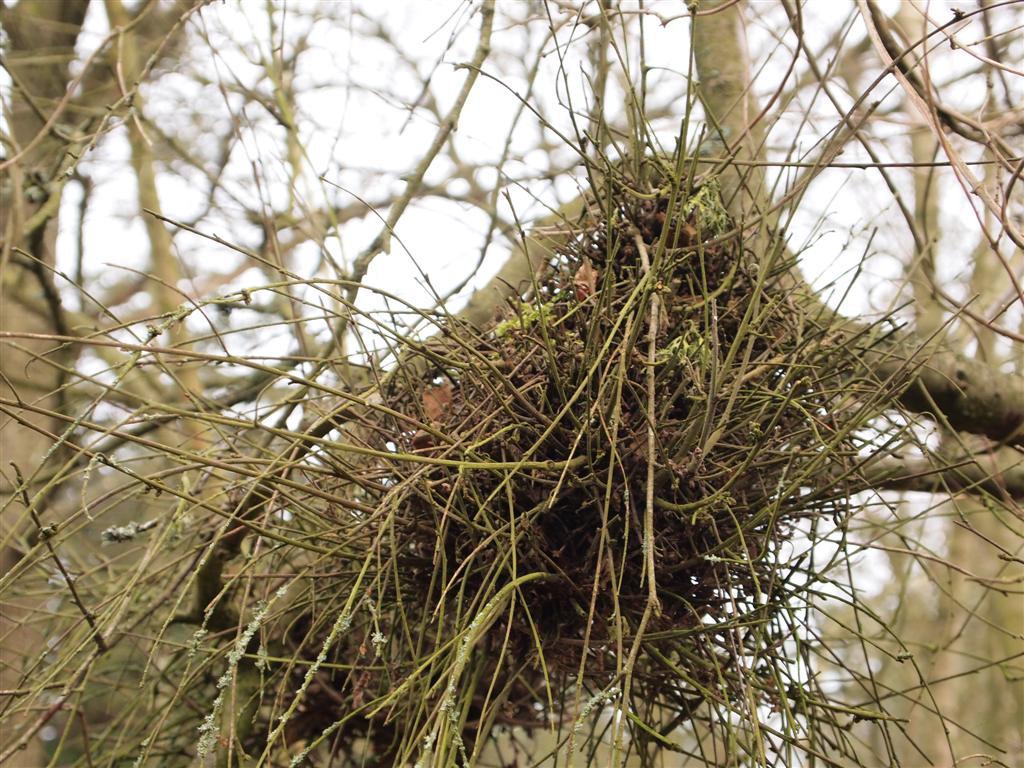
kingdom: Fungi
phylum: Ascomycota
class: Taphrinomycetes
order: Taphrinales
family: Taphrinaceae
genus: Taphrina
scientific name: Taphrina betulina
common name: hekse-sækdug
